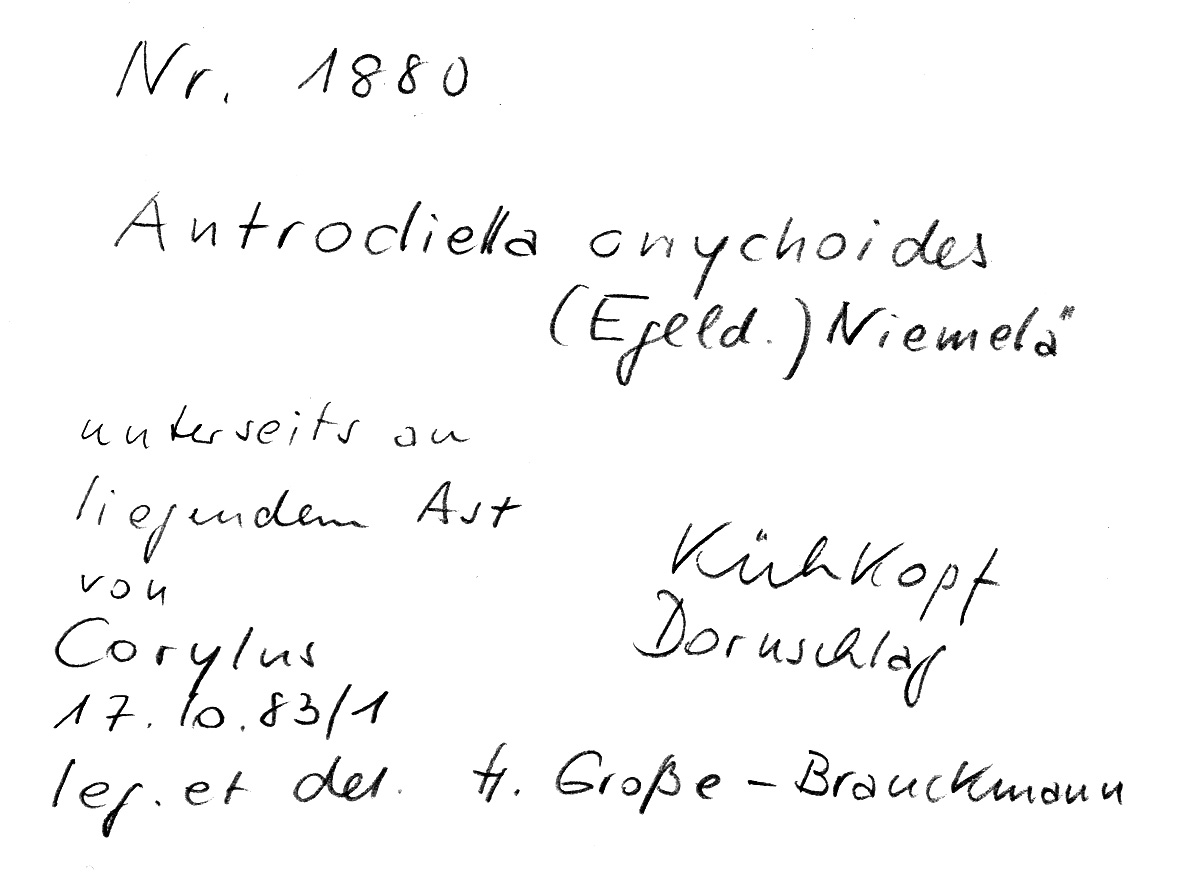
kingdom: Plantae
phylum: Tracheophyta
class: Magnoliopsida
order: Fagales
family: Betulaceae
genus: Corylus
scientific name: Corylus
